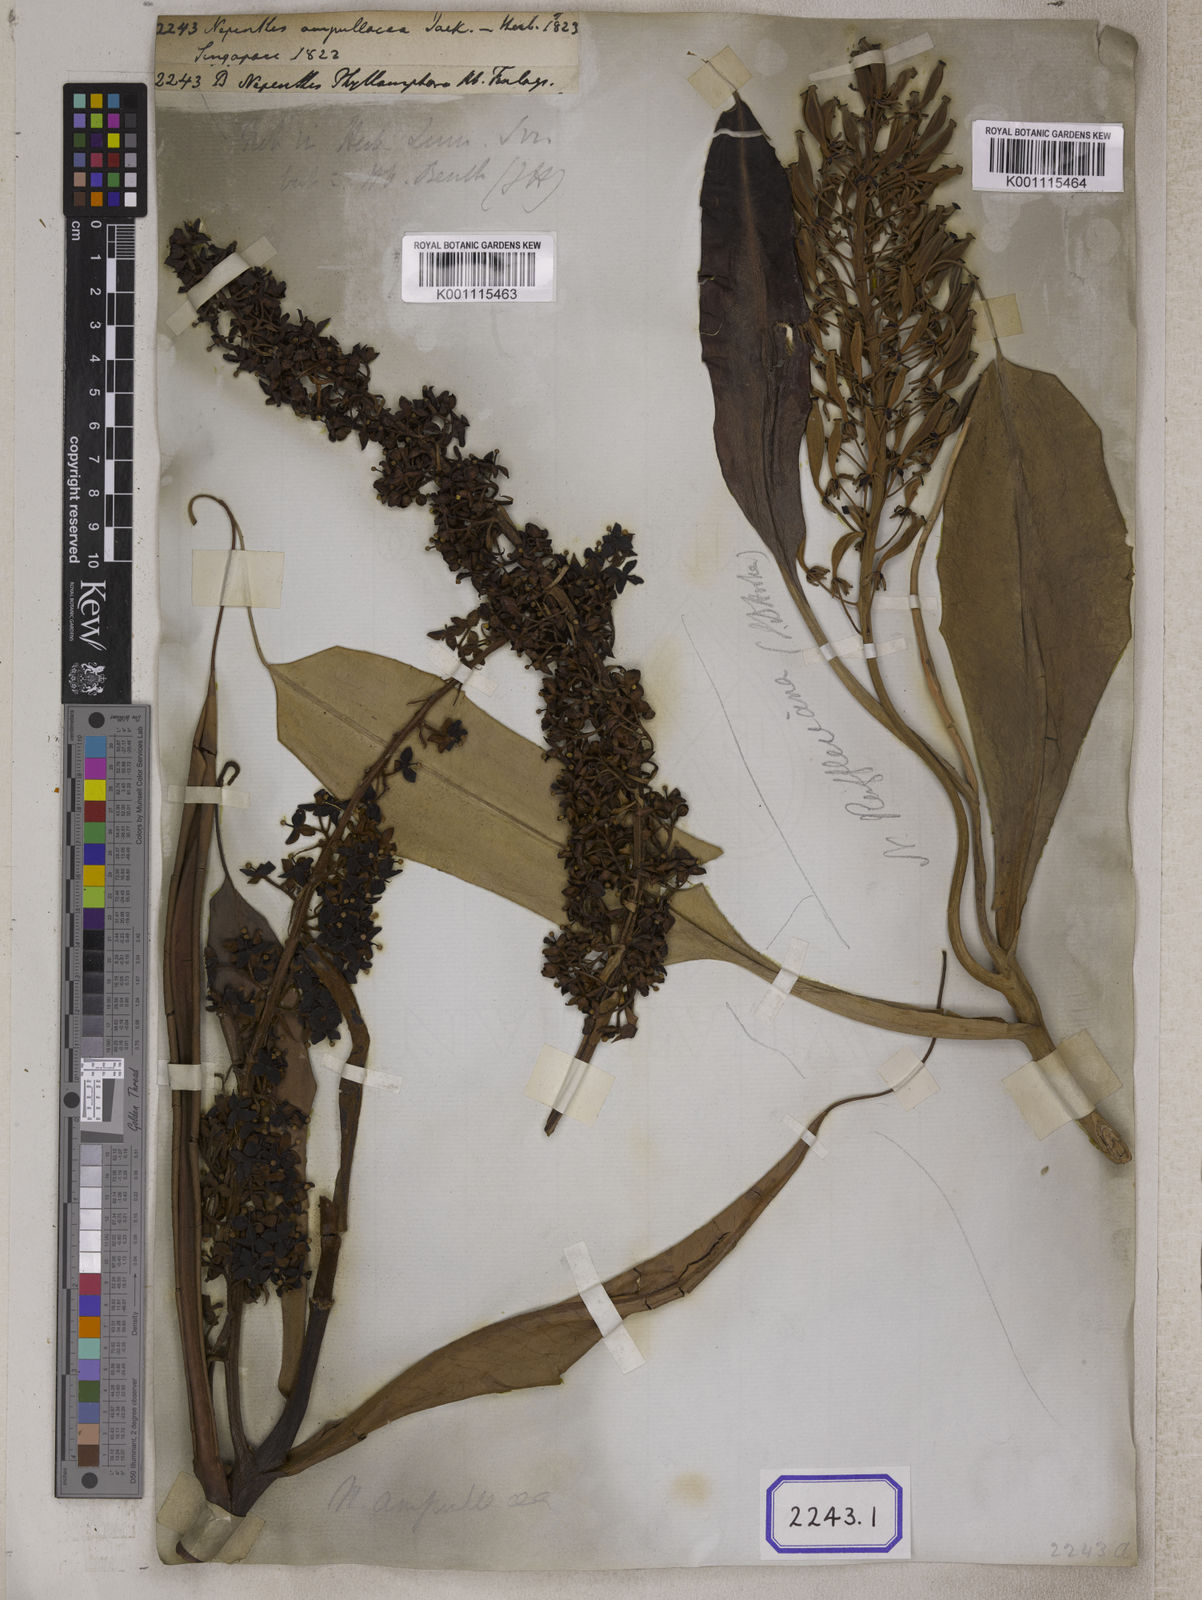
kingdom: Plantae
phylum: Tracheophyta
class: Magnoliopsida
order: Caryophyllales
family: Nepenthaceae
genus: Nepenthes
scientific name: Nepenthes ampullaria
